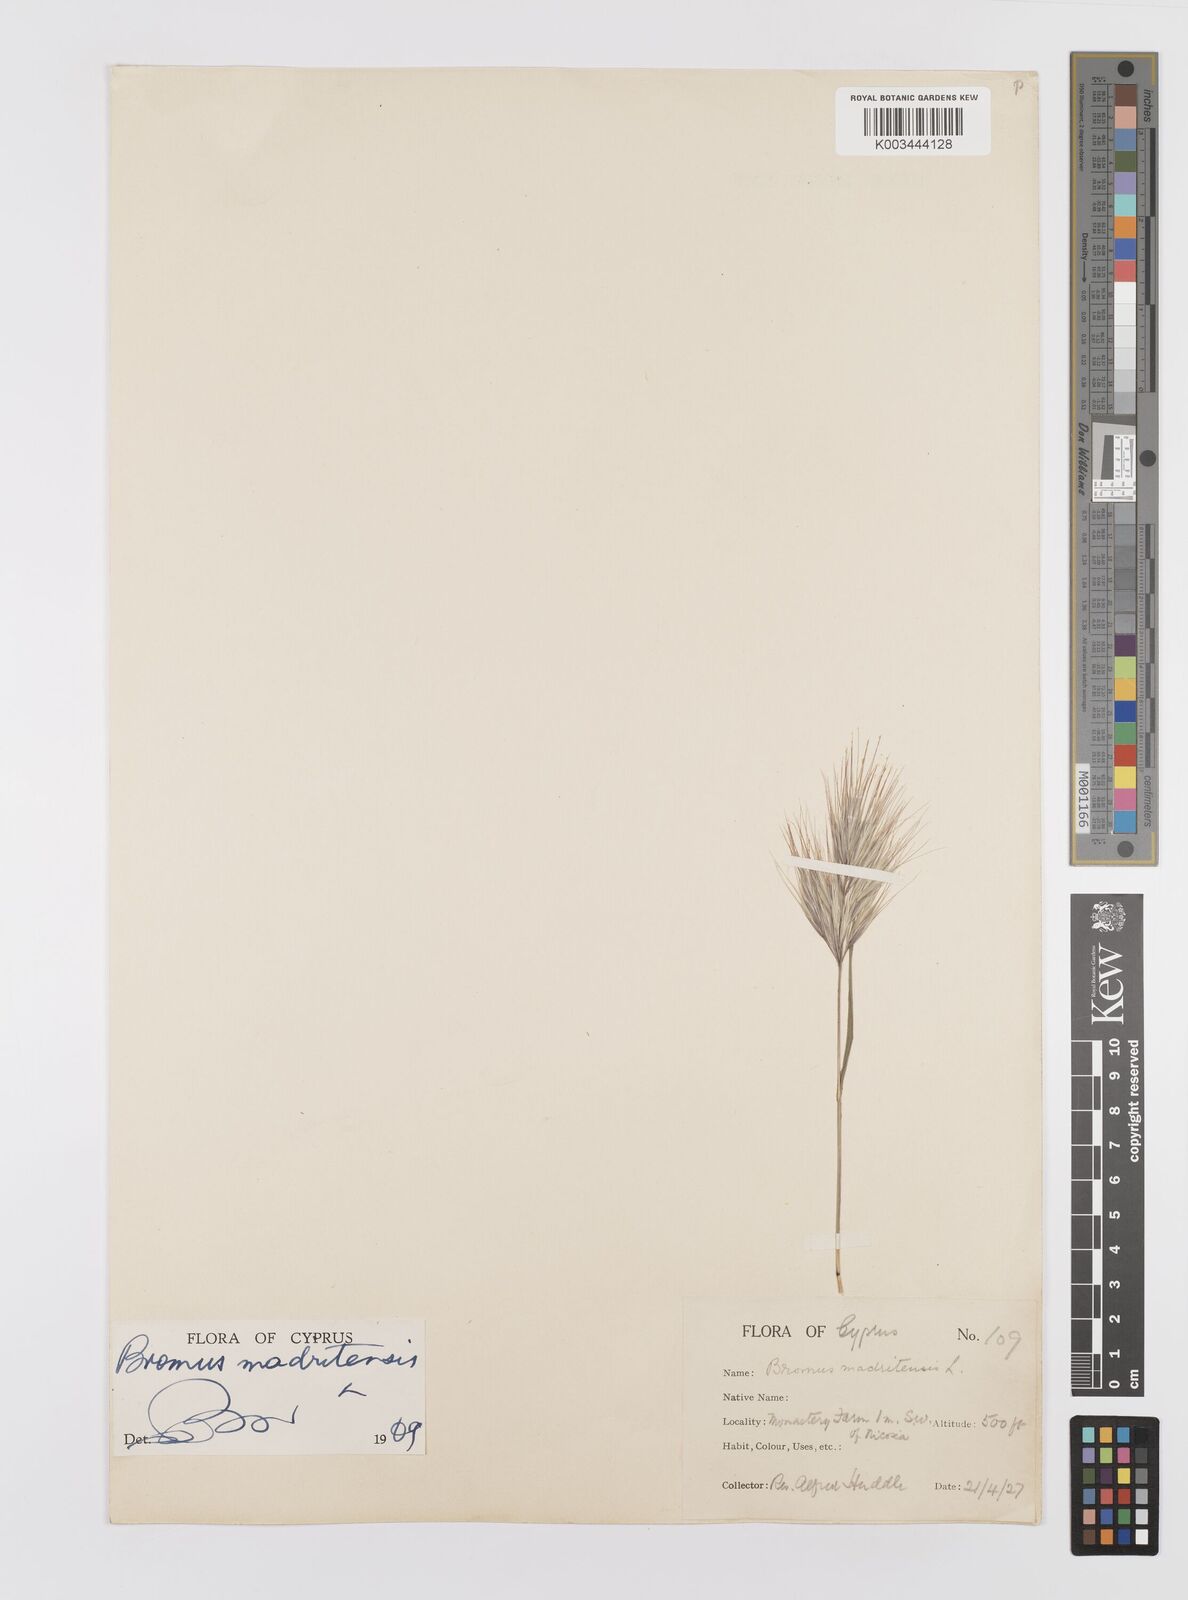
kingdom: Plantae
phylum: Tracheophyta
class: Liliopsida
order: Poales
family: Poaceae
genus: Bromus
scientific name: Bromus madritensis
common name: Compact brome
